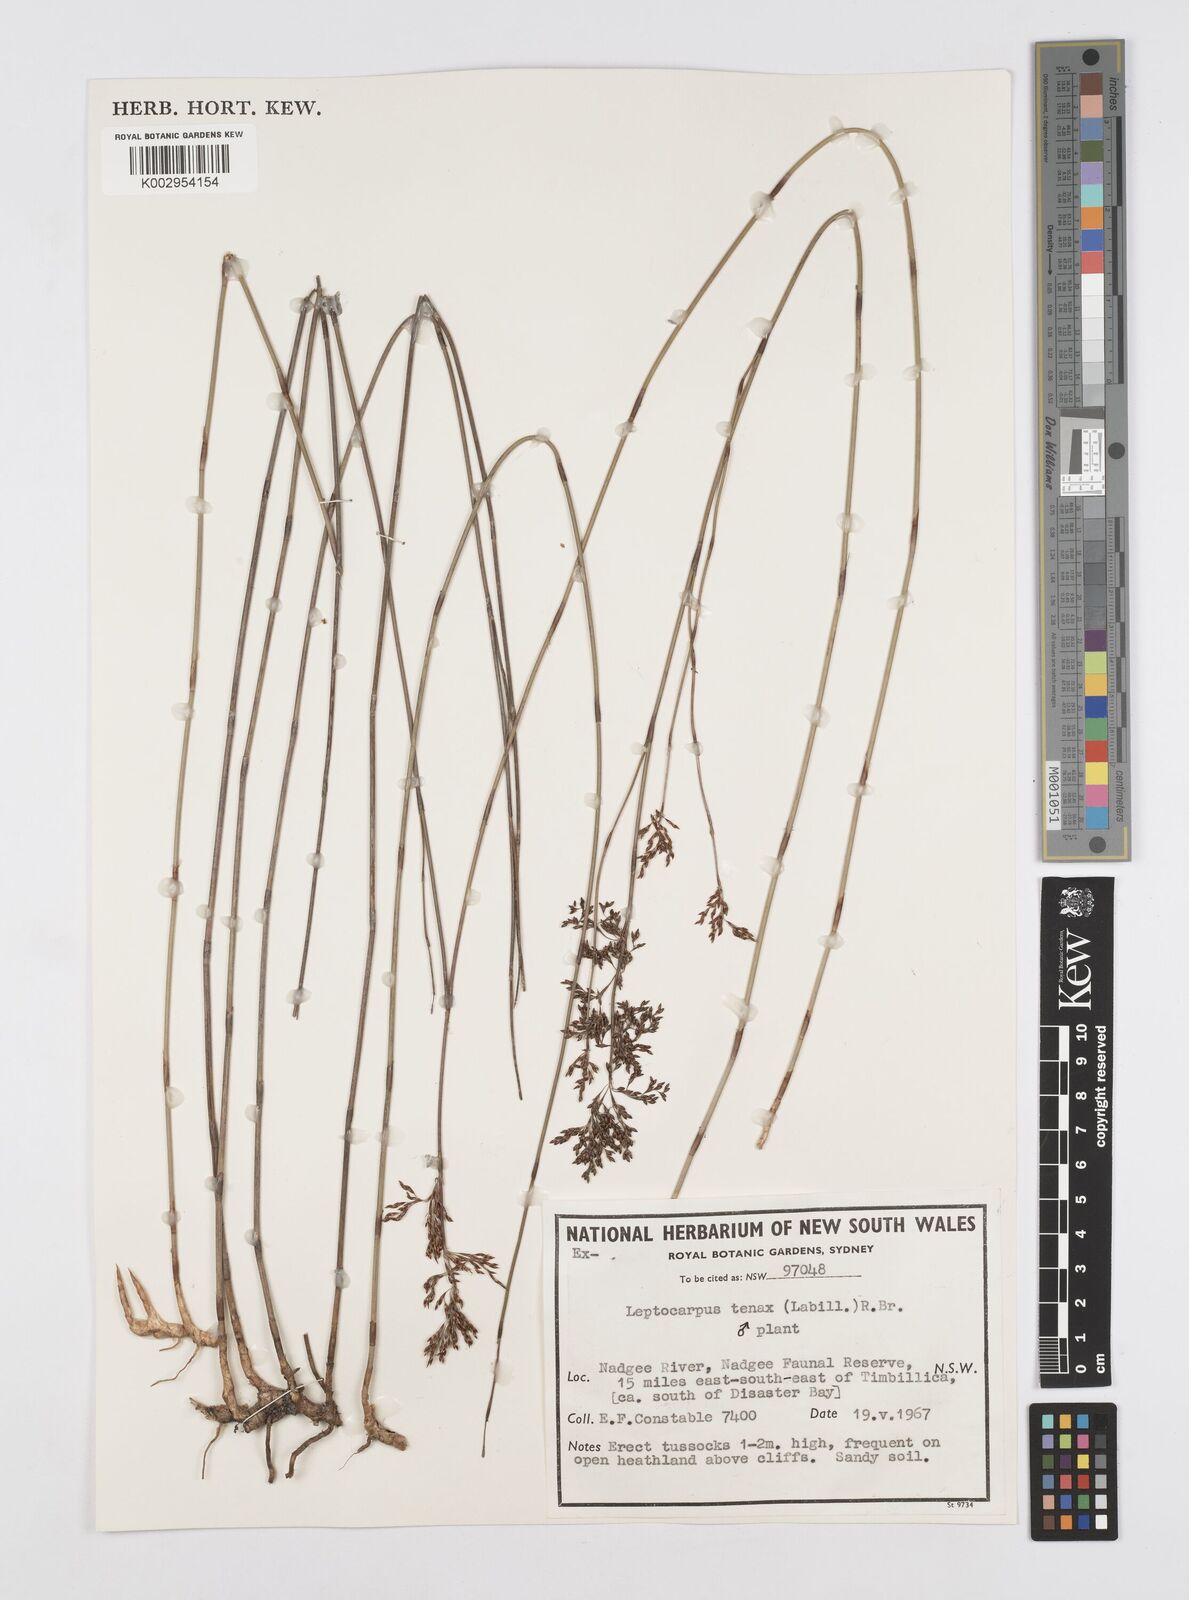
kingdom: Plantae
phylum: Tracheophyta
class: Liliopsida
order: Poales
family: Restionaceae
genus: Leptocarpus
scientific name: Leptocarpus tenax
